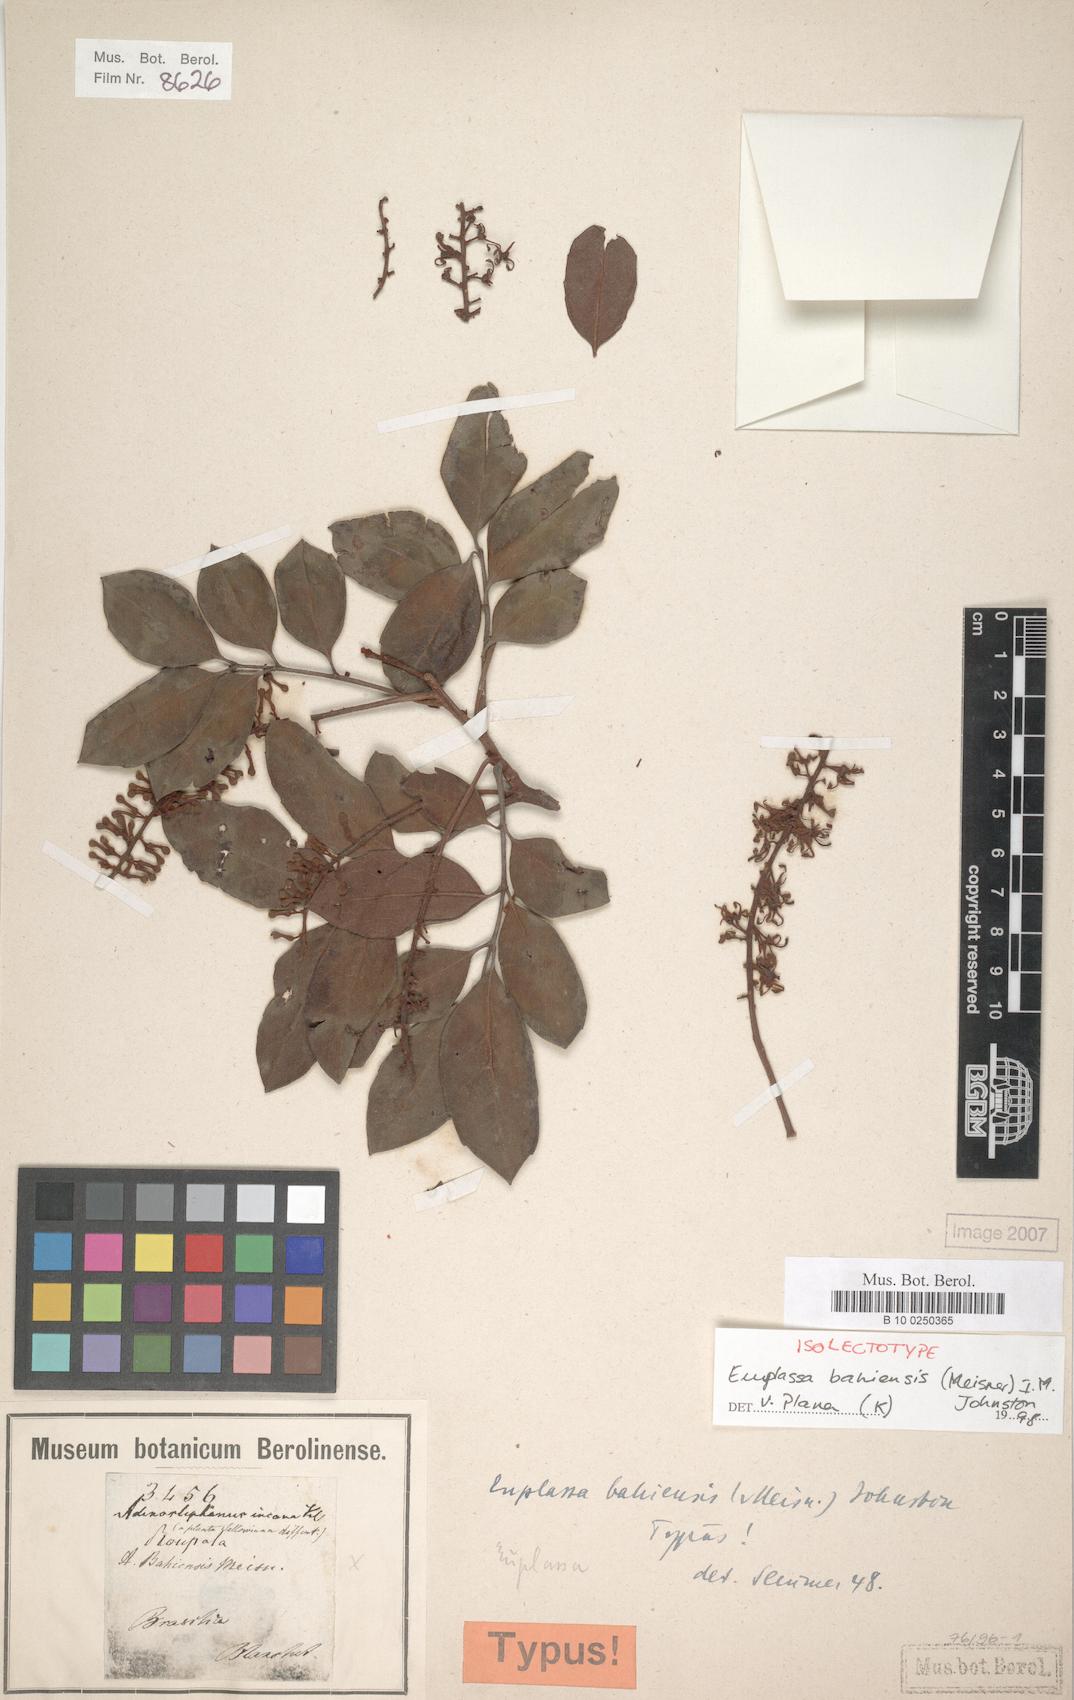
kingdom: Plantae
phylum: Tracheophyta
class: Magnoliopsida
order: Proteales
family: Proteaceae
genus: Euplassa
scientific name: Euplassa bahiensis
